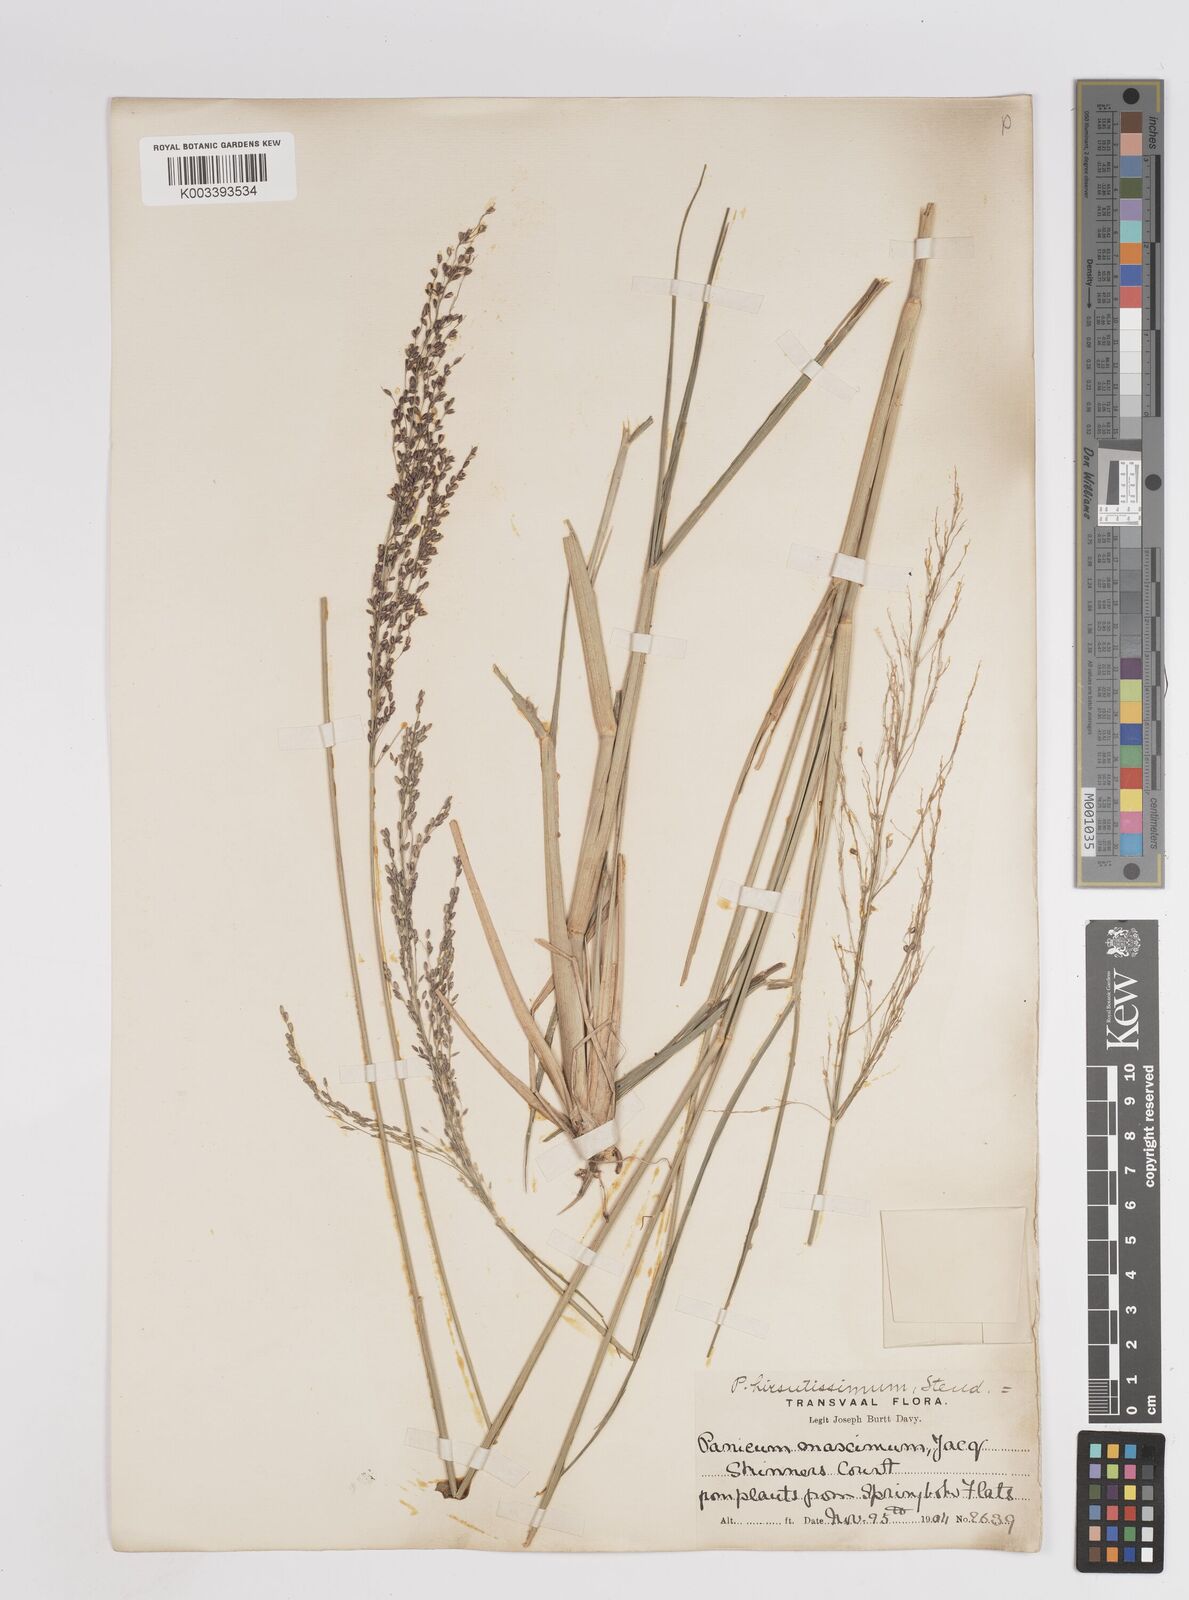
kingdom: Plantae
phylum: Tracheophyta
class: Liliopsida
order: Poales
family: Poaceae
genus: Megathyrsus
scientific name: Megathyrsus maximus
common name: Guineagrass
